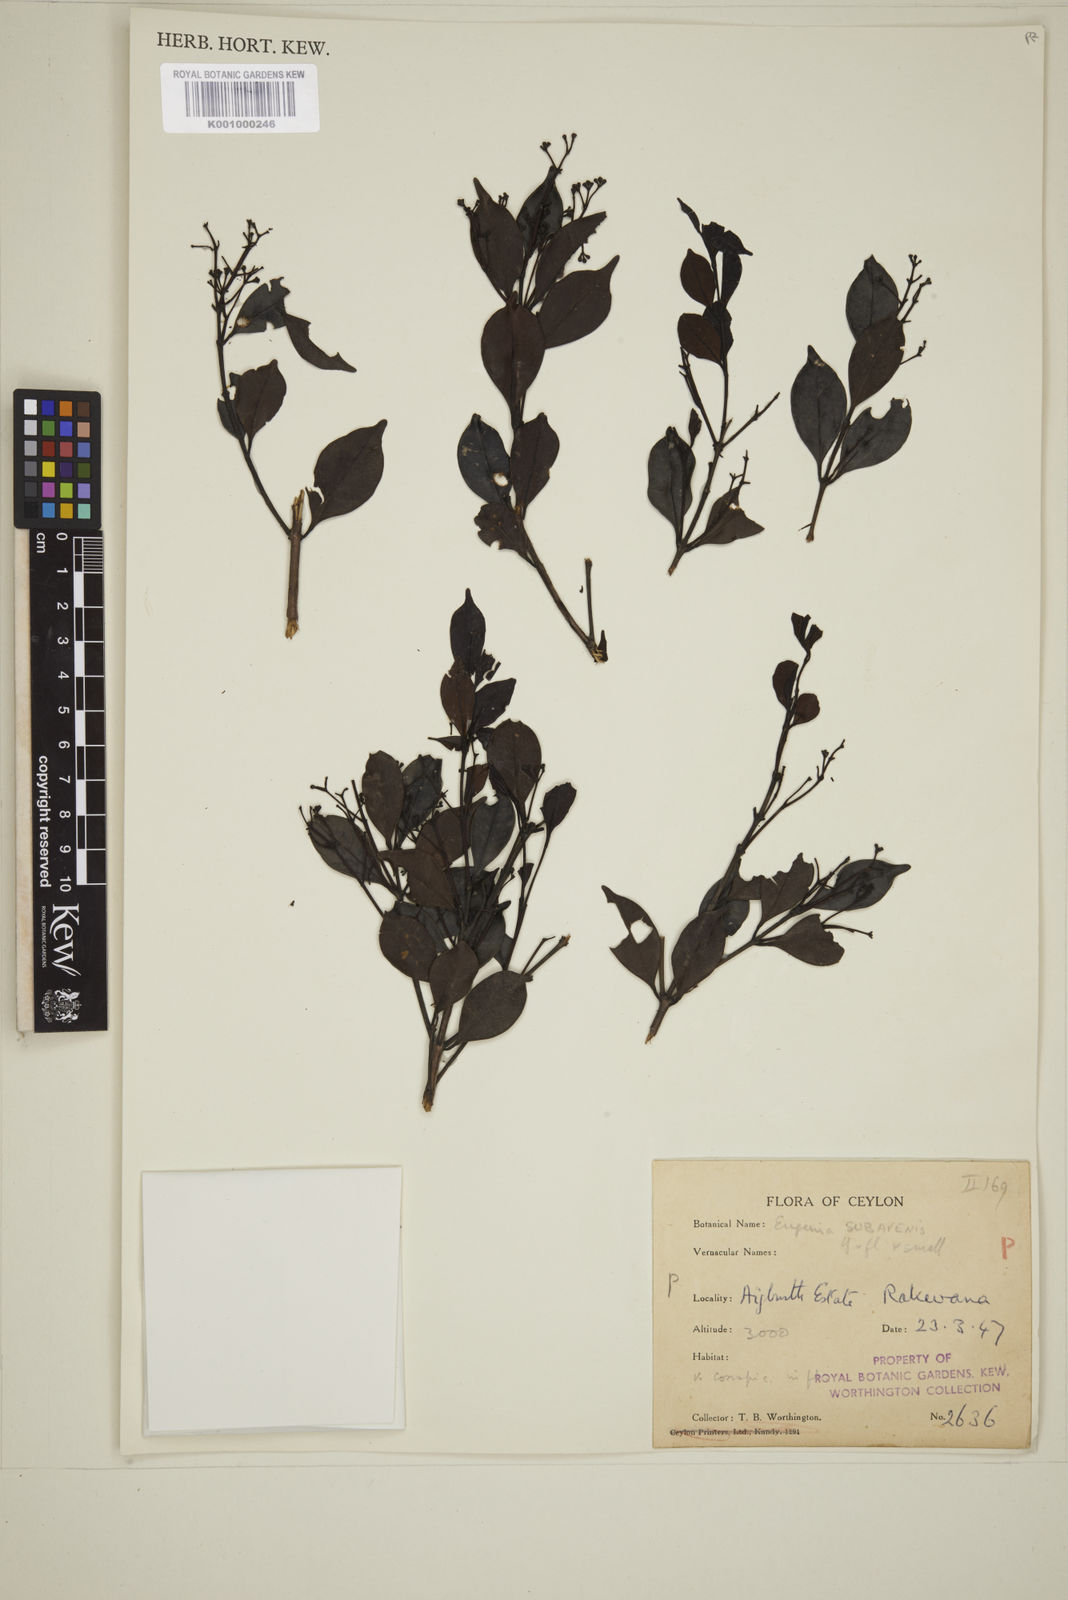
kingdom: Plantae
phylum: Tracheophyta
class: Magnoliopsida
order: Myrtales
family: Myrtaceae
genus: Eugenia
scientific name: Eugenia
